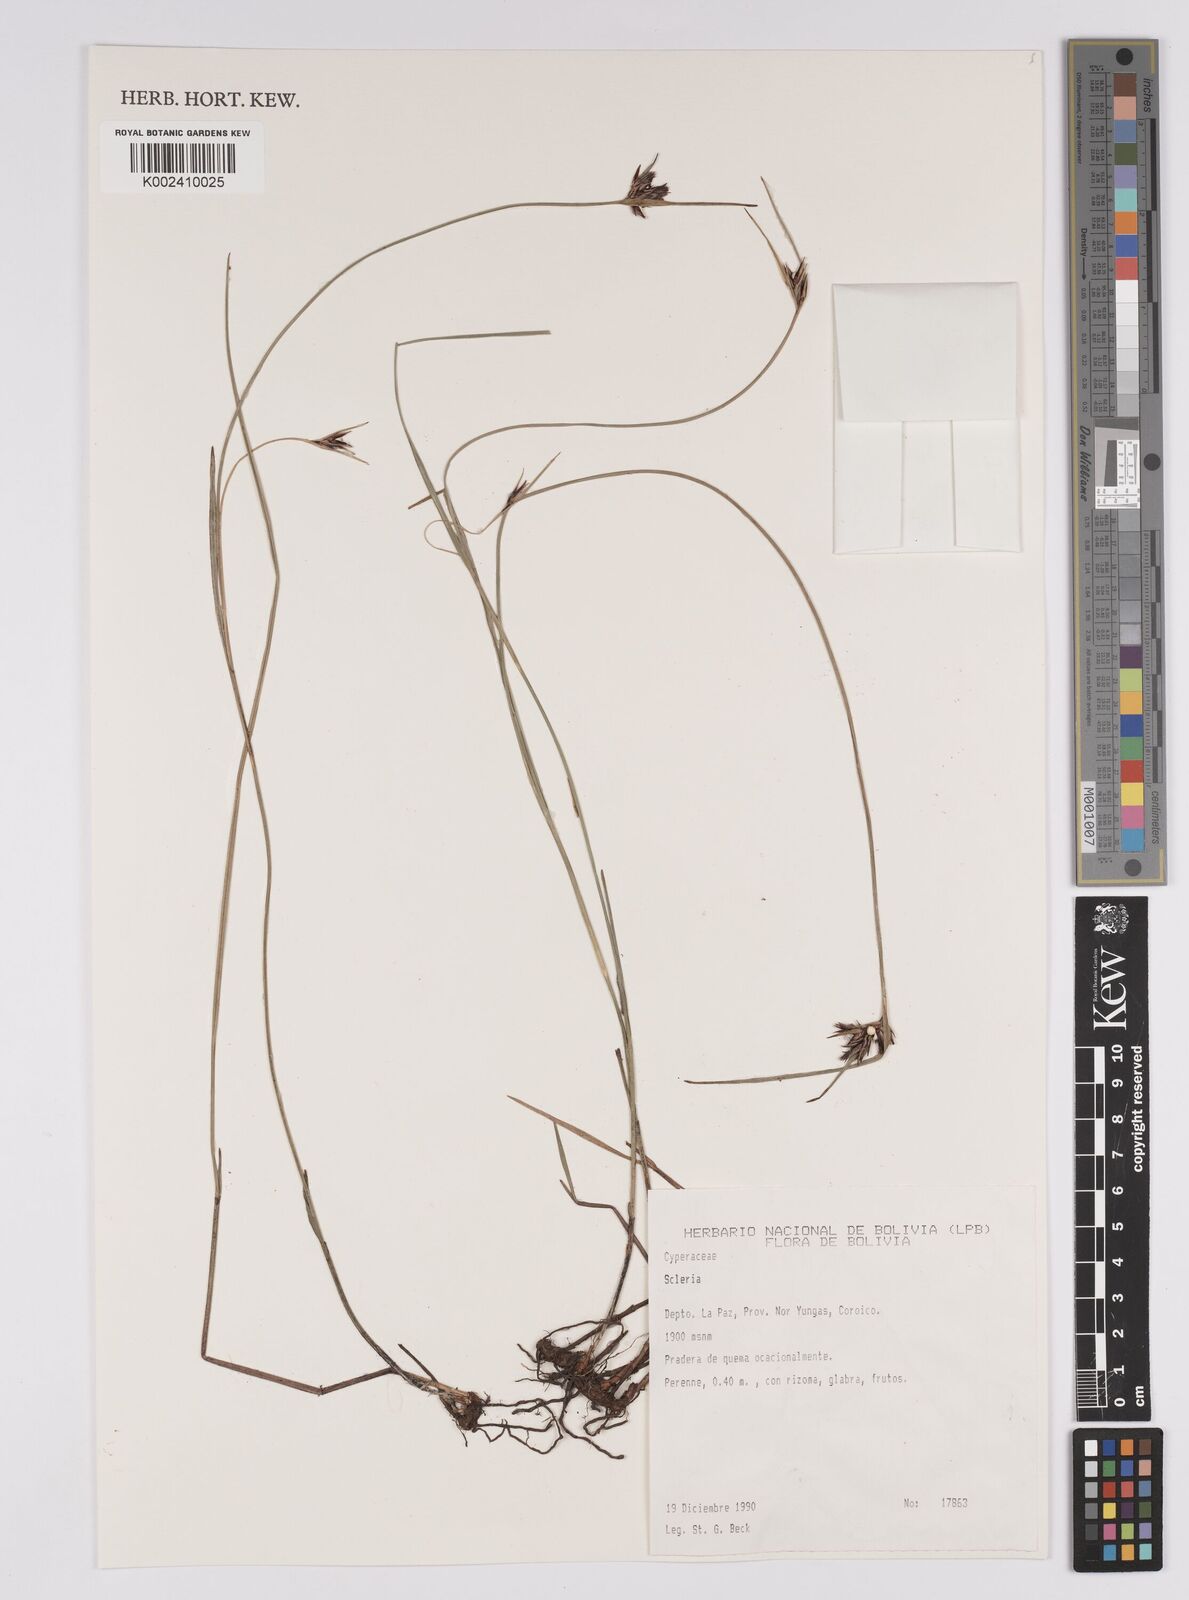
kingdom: Plantae
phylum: Tracheophyta
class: Liliopsida
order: Poales
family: Cyperaceae
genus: Scleria
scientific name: Scleria
